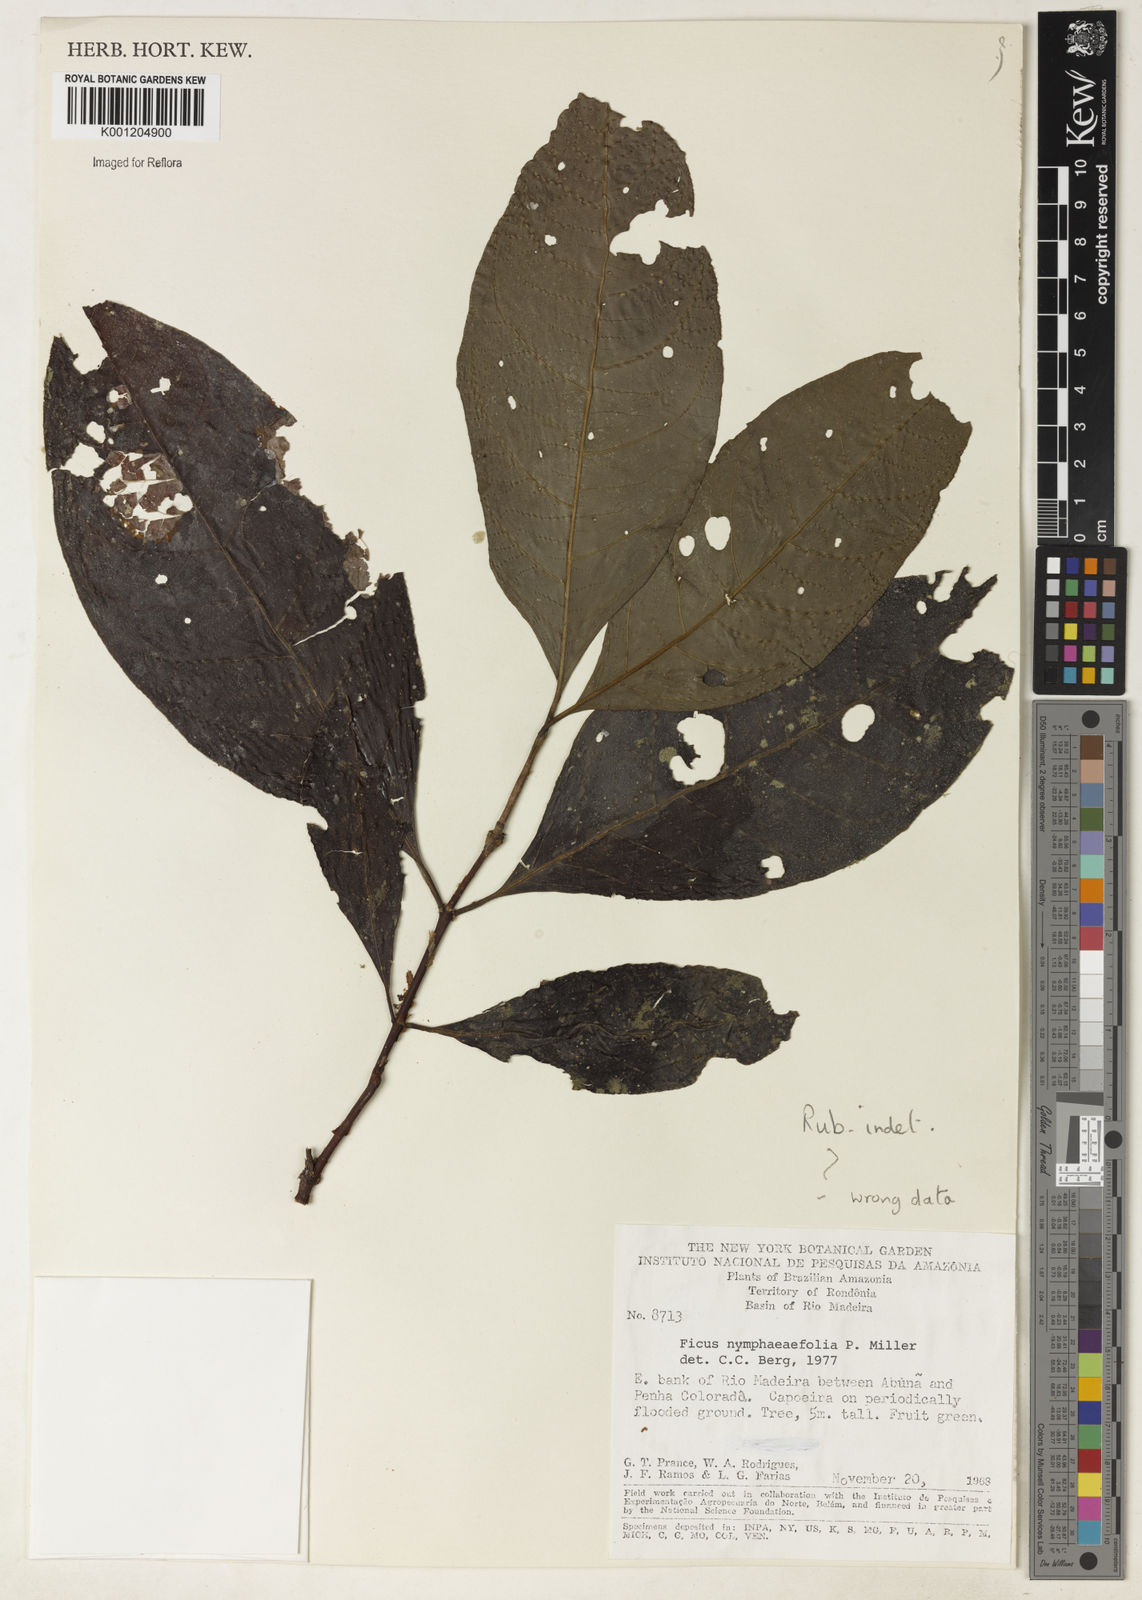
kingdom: Plantae
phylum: Tracheophyta
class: Magnoliopsida
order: Gentianales
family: Rubiaceae
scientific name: Rubiaceae
